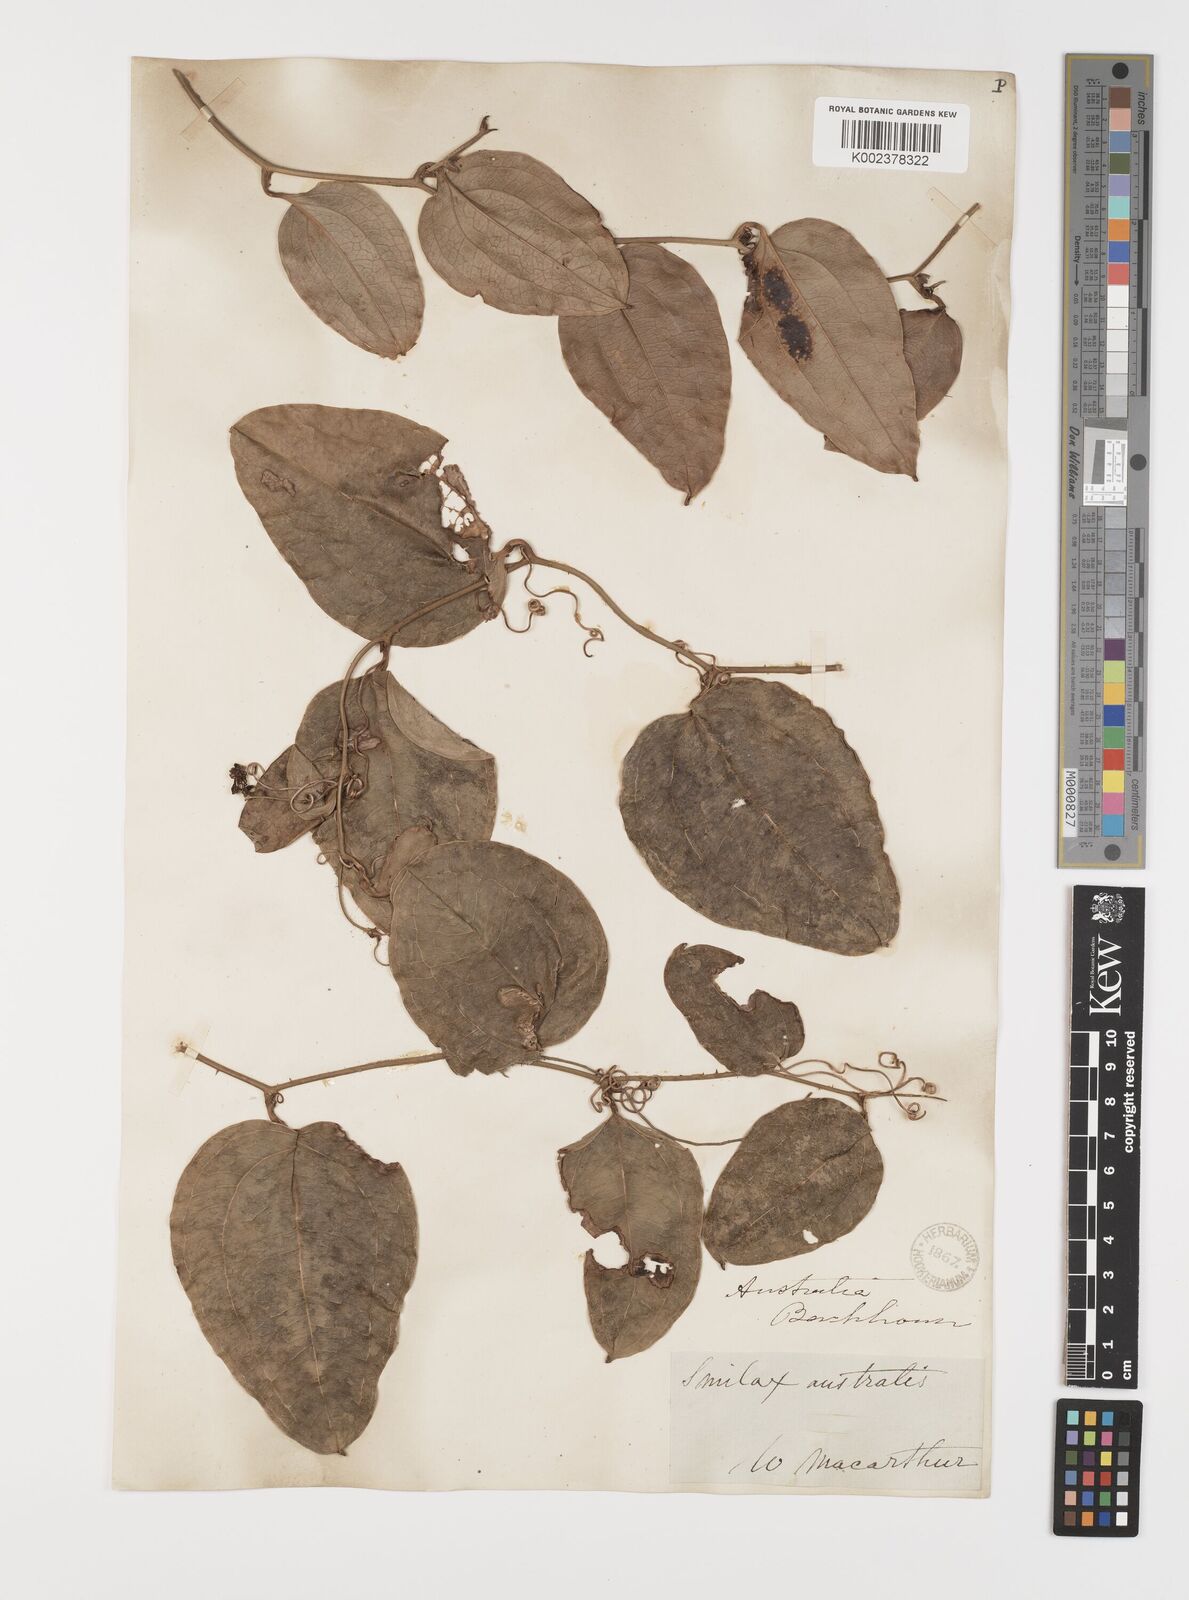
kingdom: Plantae
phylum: Tracheophyta
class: Liliopsida
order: Liliales
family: Smilacaceae
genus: Smilax
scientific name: Smilax australis
